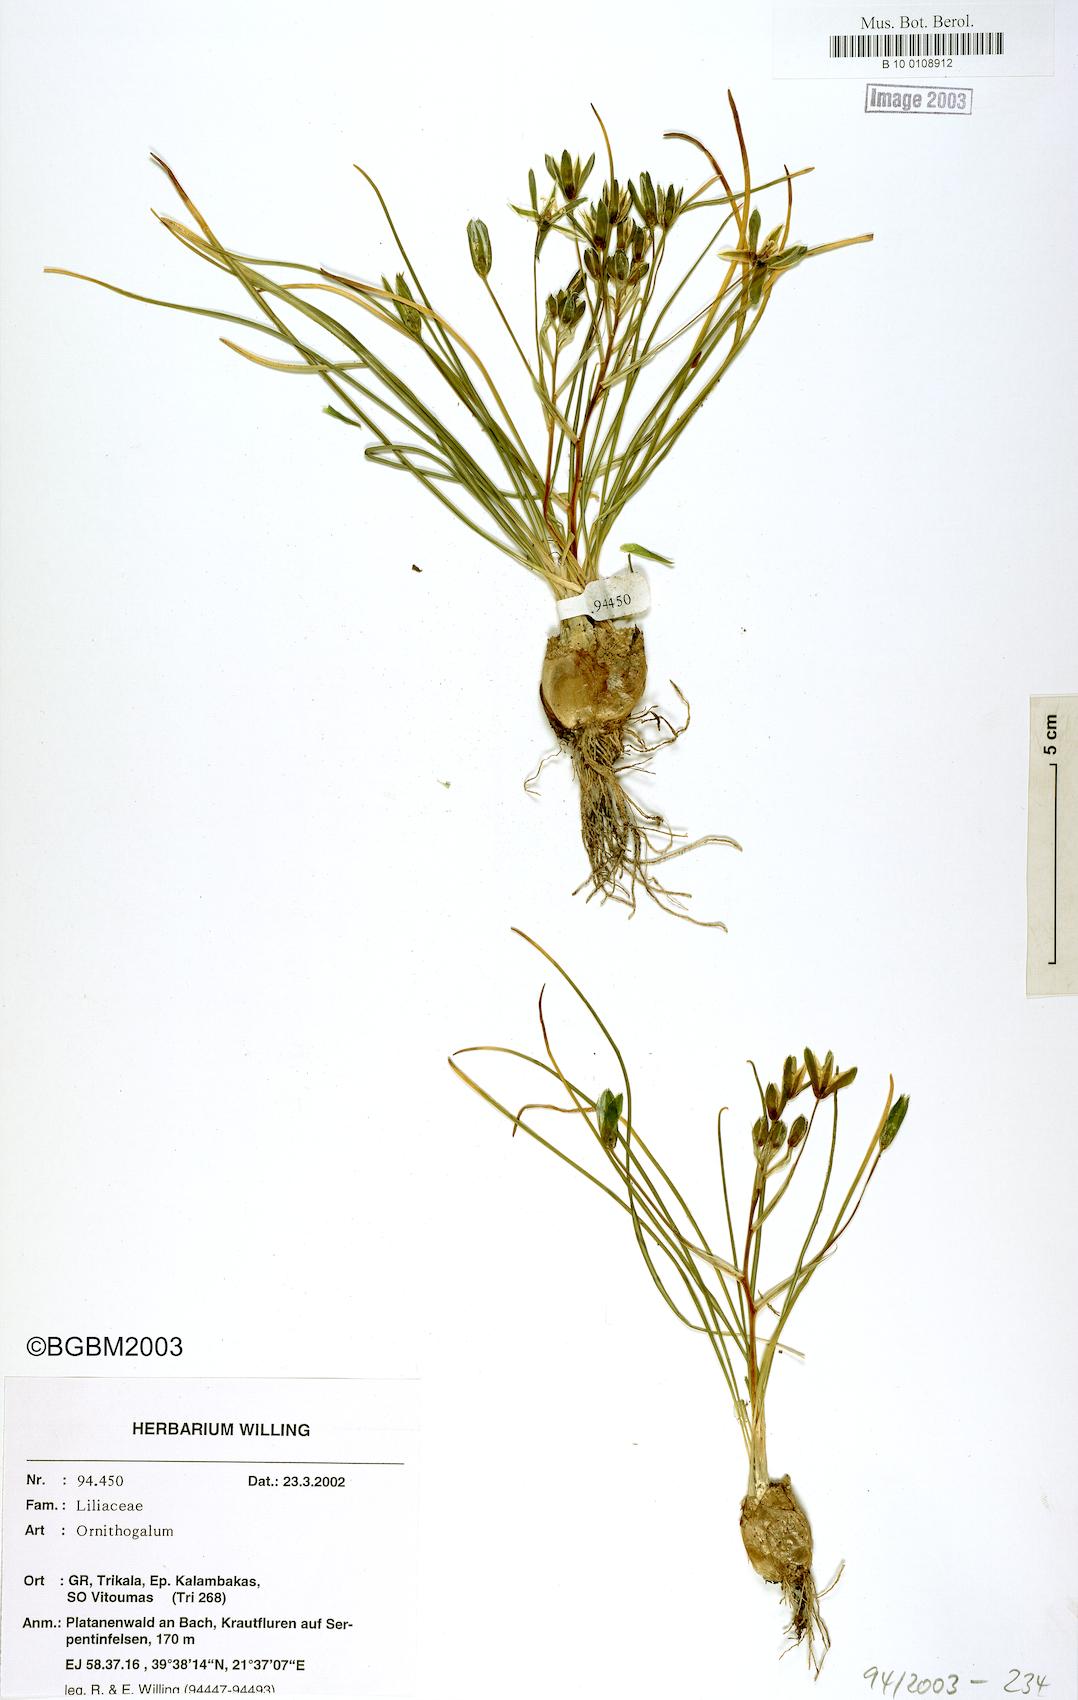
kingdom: Plantae
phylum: Tracheophyta
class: Liliopsida
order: Liliales
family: Liliaceae
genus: Ornithogalum
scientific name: Ornithogalum
